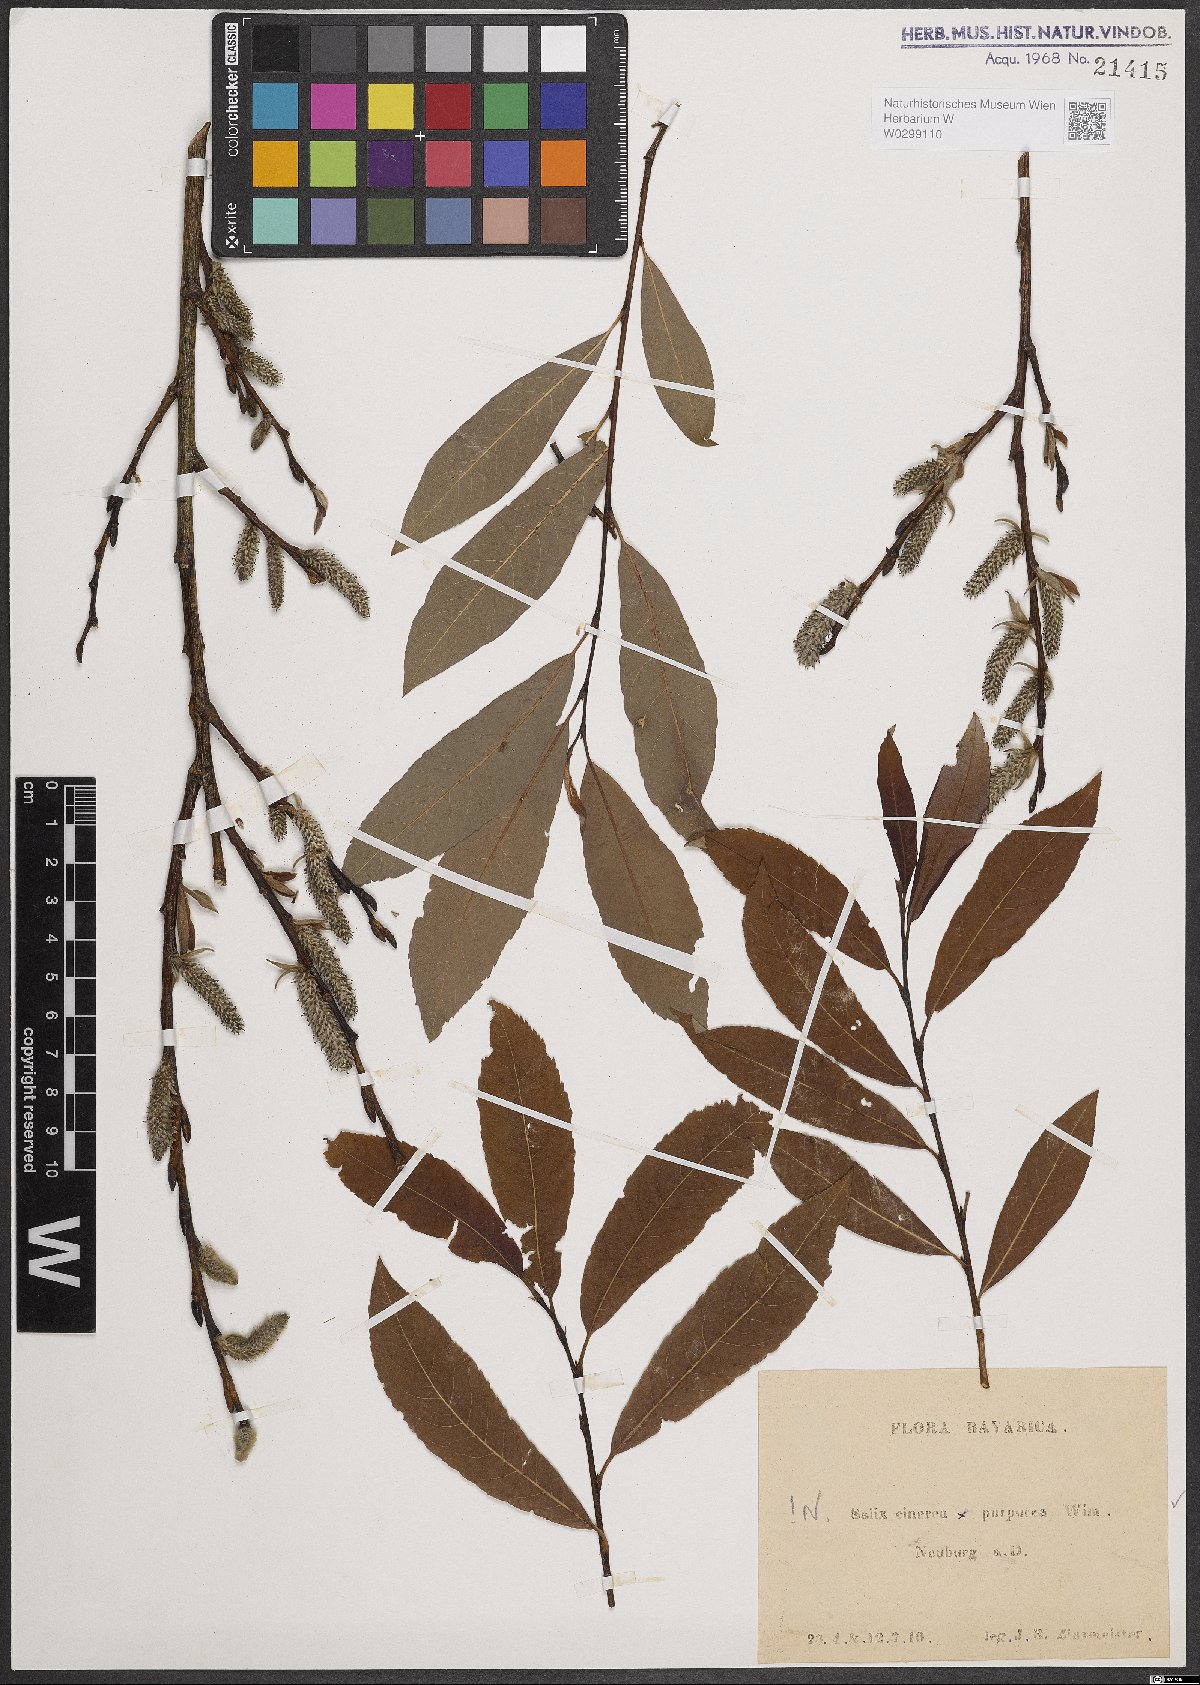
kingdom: Plantae
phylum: Tracheophyta
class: Magnoliopsida
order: Malpighiales
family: Salicaceae
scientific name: Salicaceae
